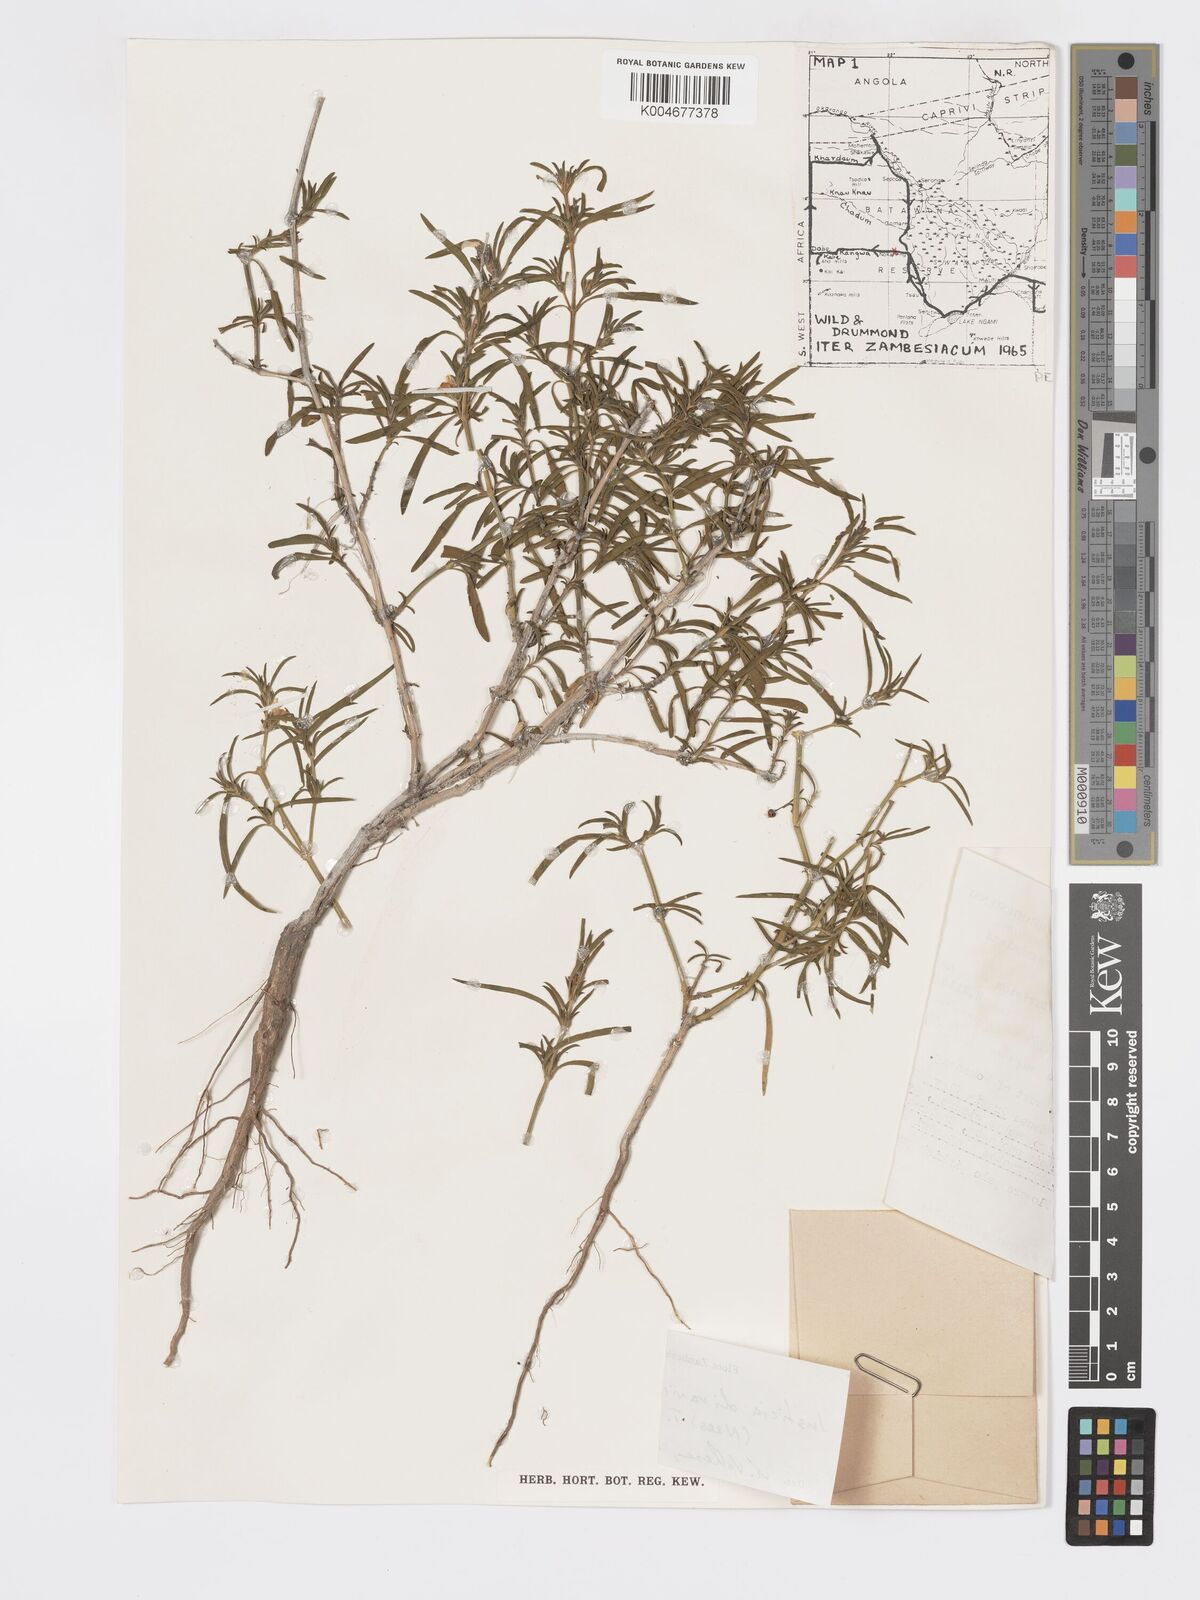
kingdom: Plantae
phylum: Tracheophyta
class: Magnoliopsida
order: Lamiales
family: Acanthaceae
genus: Pogonospermum
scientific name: Pogonospermum
